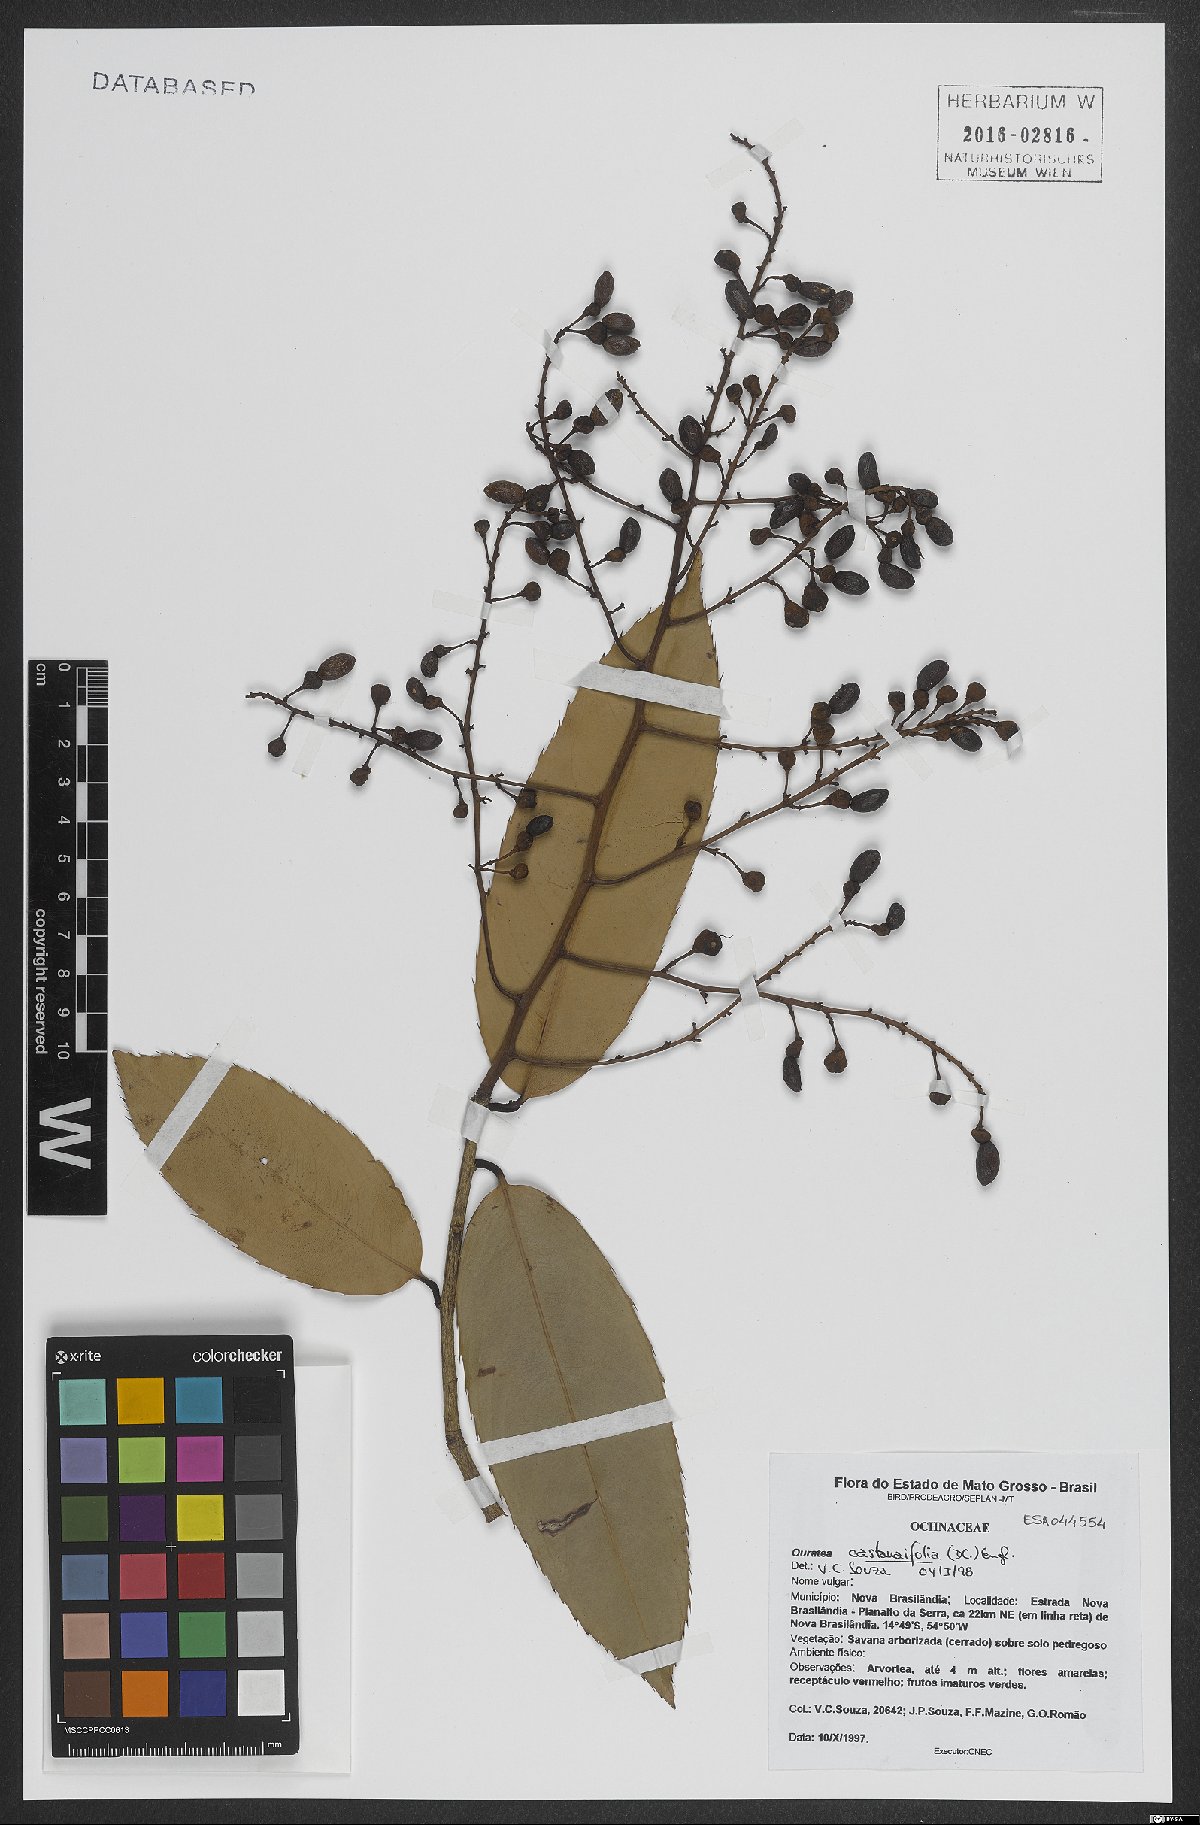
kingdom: Plantae
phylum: Tracheophyta
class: Magnoliopsida
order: Malpighiales
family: Ochnaceae
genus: Ouratea
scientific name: Ouratea castaneifolia
